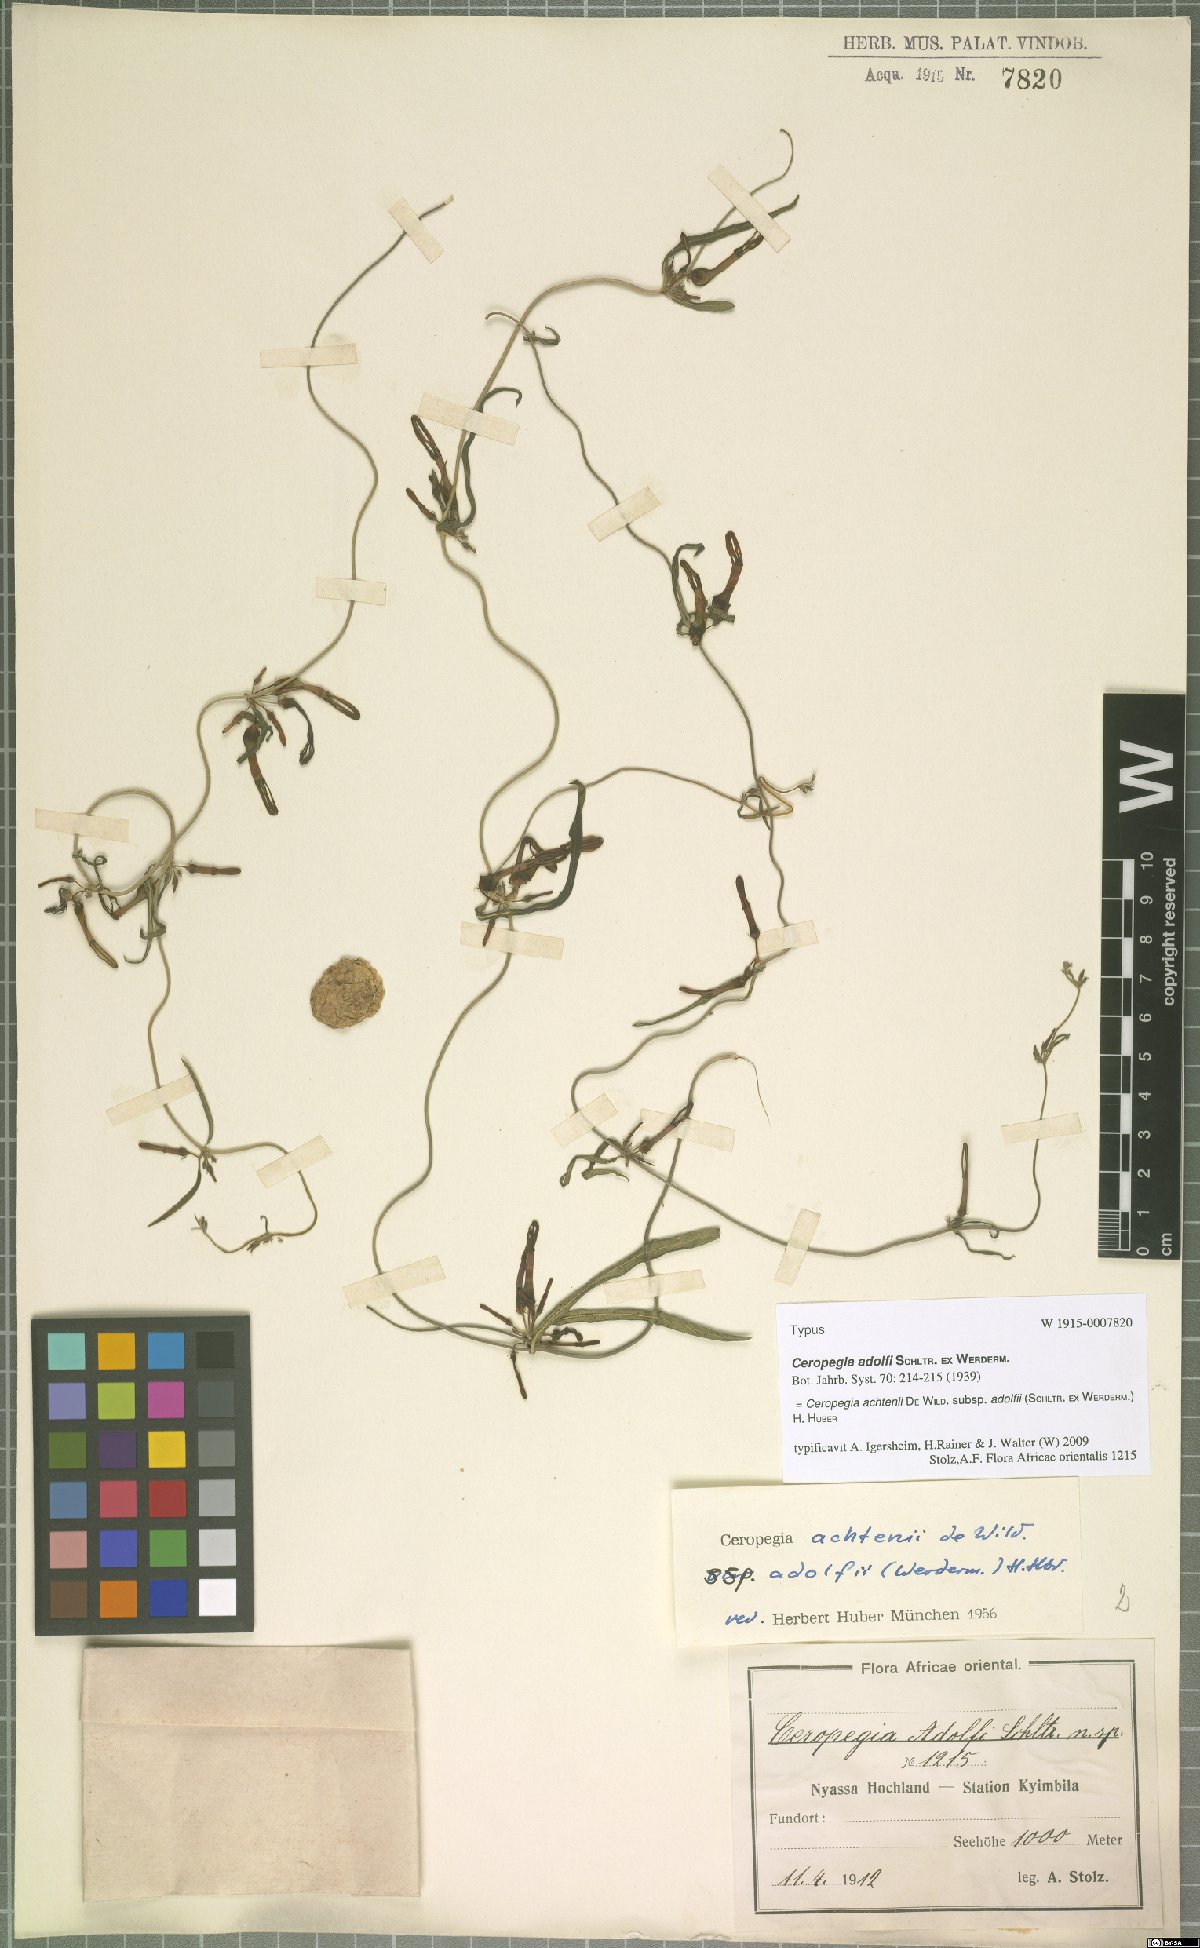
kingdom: Plantae
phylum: Tracheophyta
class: Magnoliopsida
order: Gentianales
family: Apocynaceae
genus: Ceropegia
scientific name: Ceropegia achtenii
